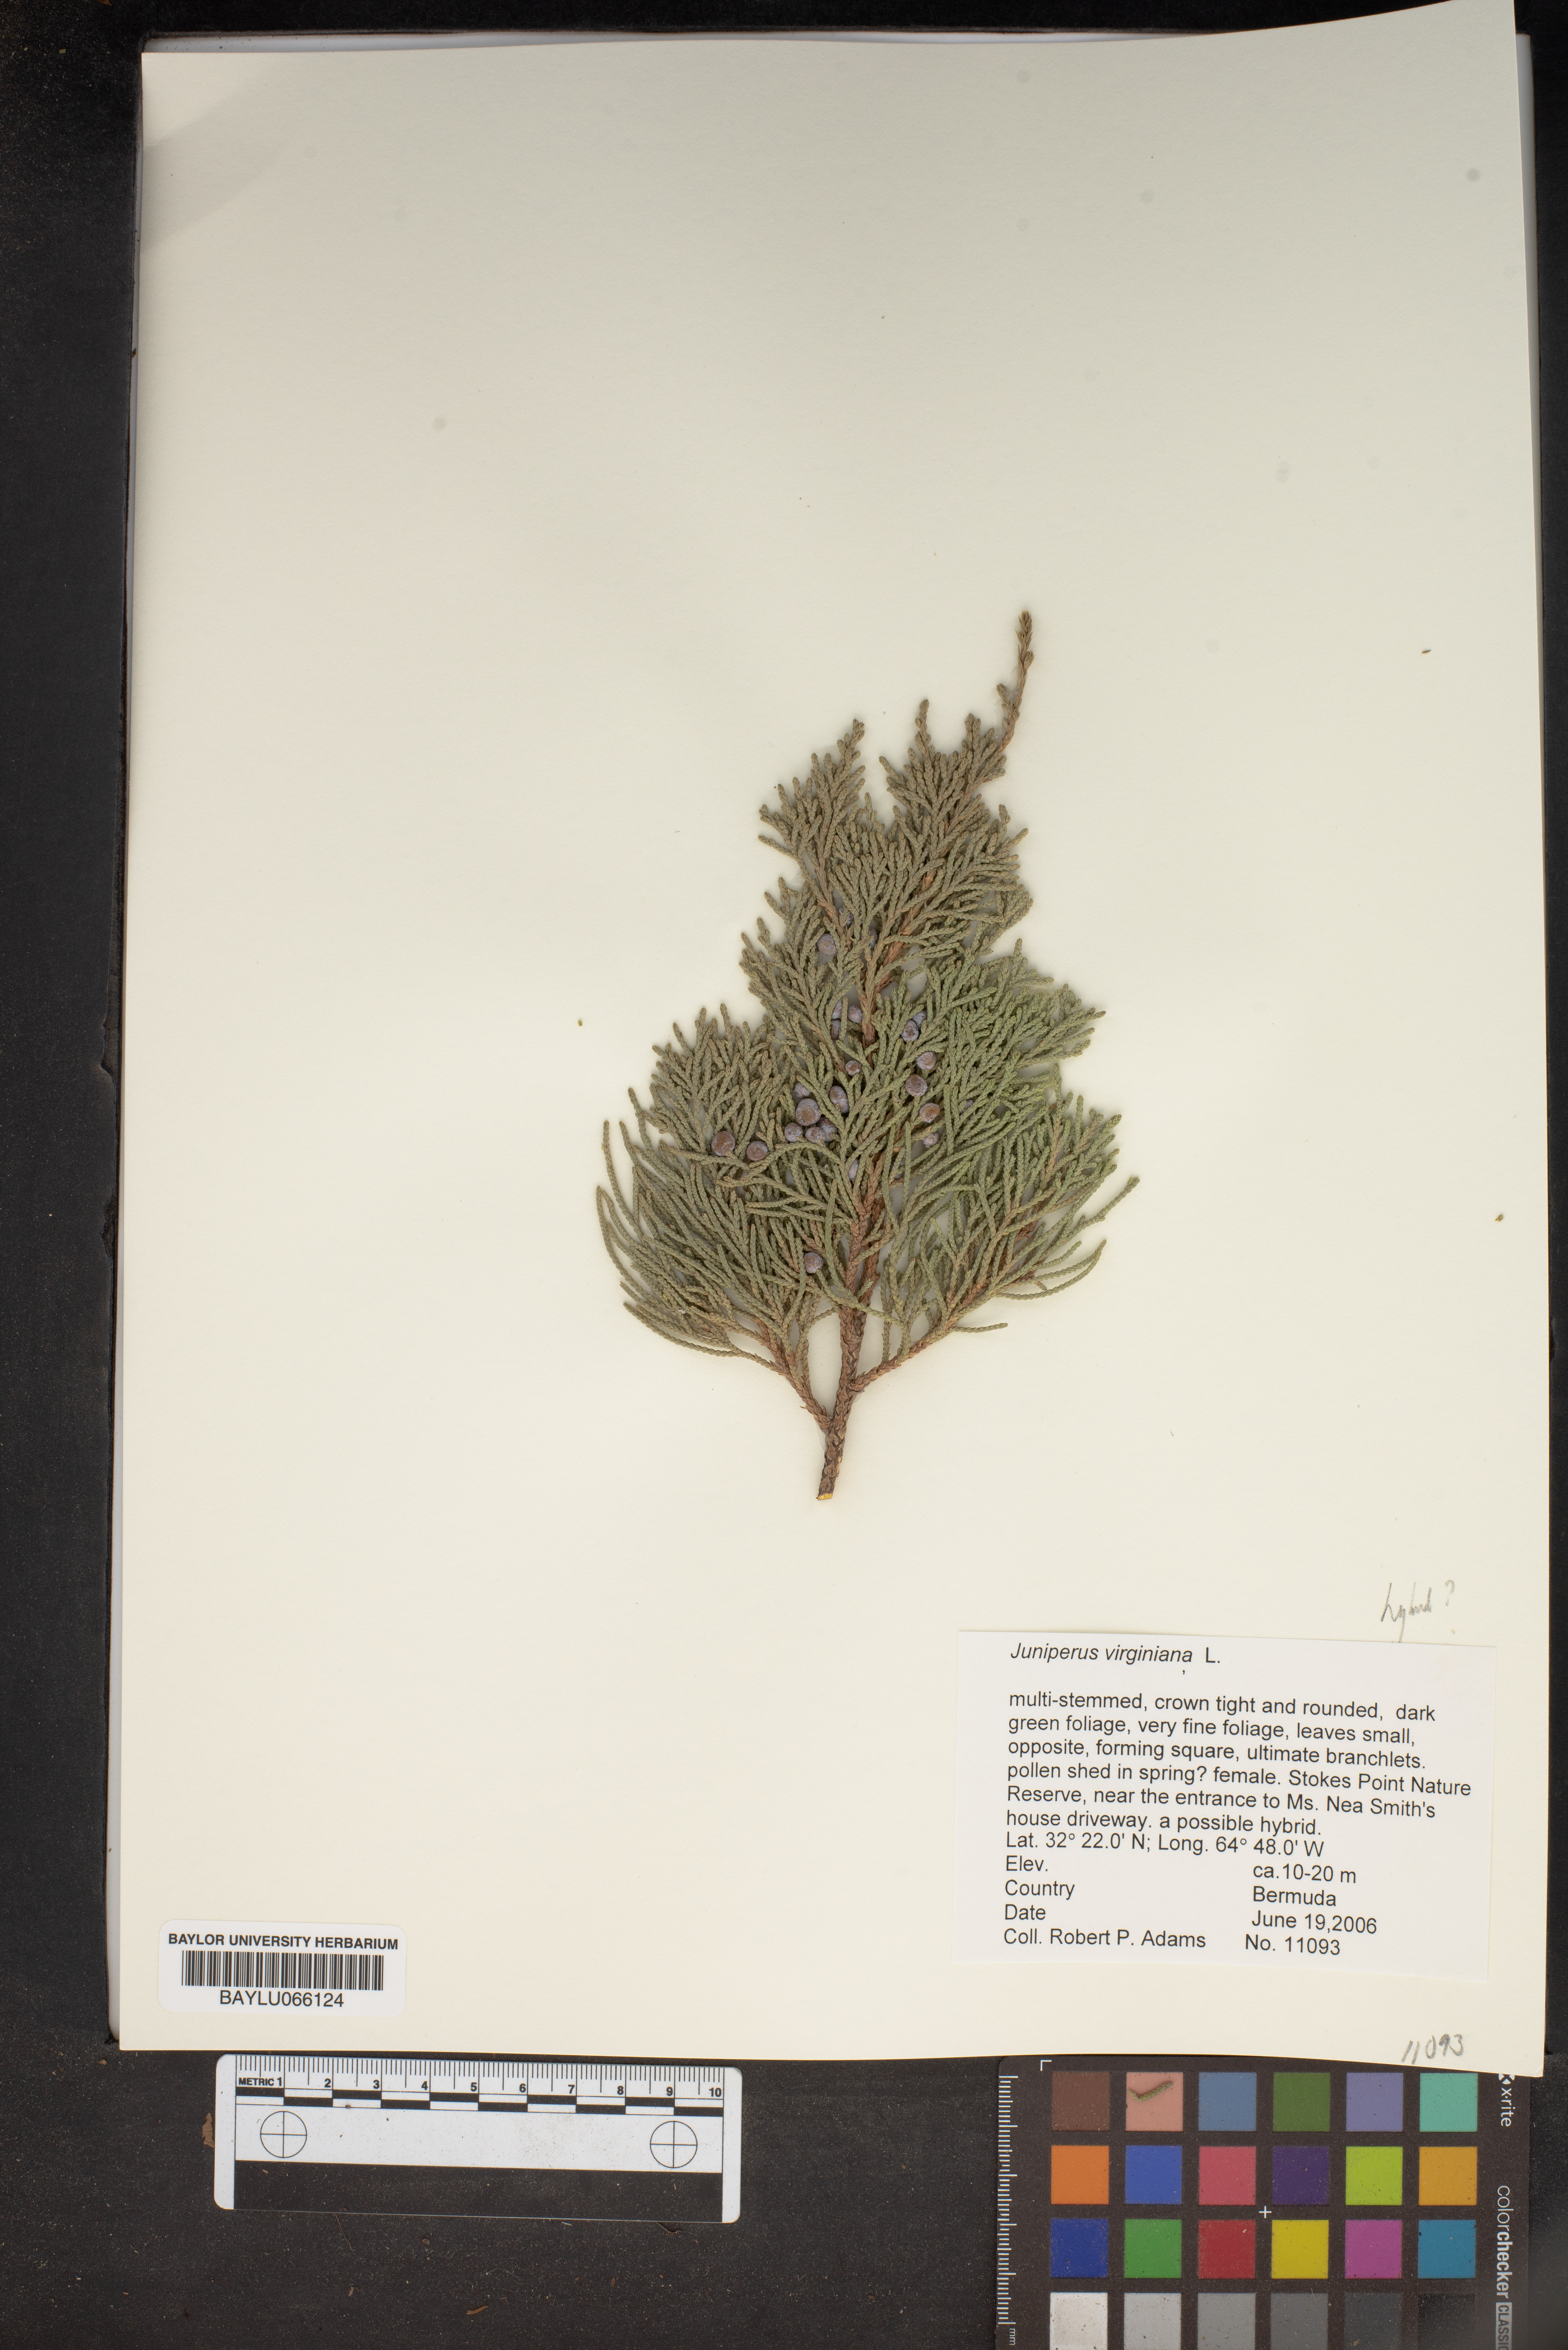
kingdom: Plantae
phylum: Tracheophyta
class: Pinopsida
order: Pinales
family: Cupressaceae
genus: Juniperus
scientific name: Juniperus virginiana
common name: Red juniper
